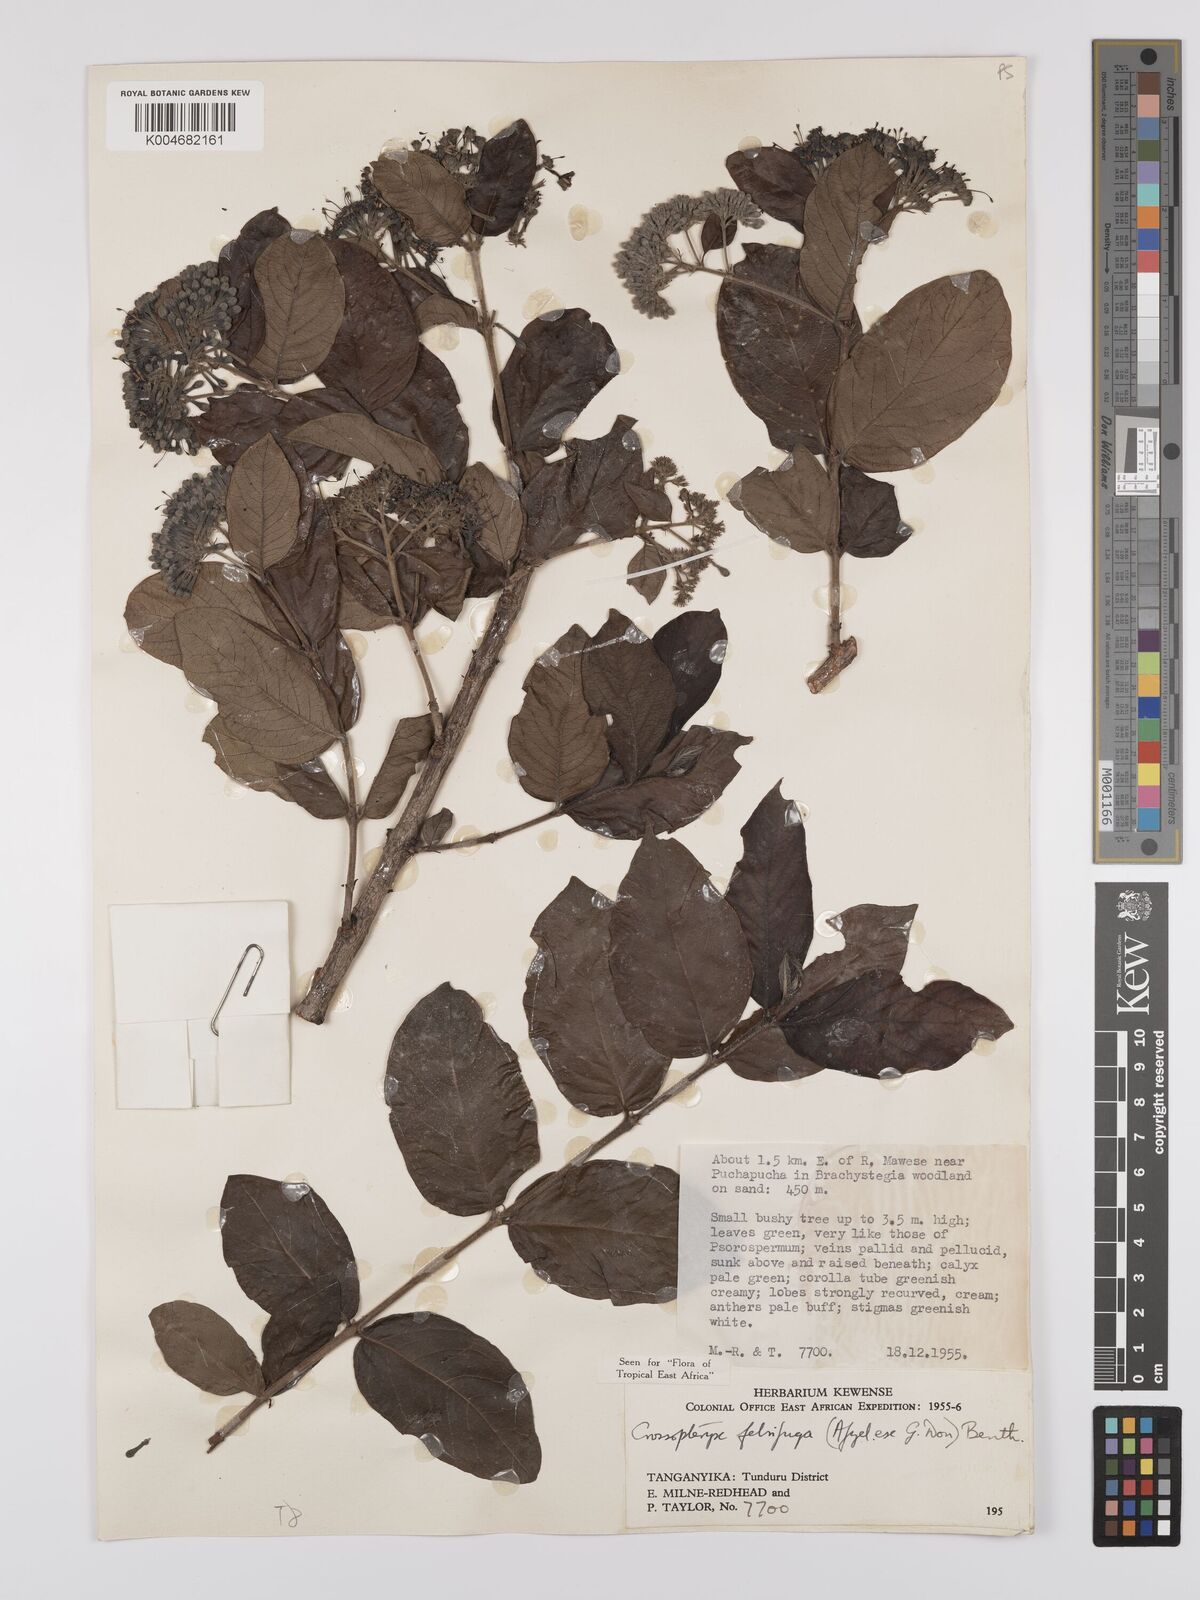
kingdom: Plantae
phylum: Tracheophyta
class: Magnoliopsida
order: Gentianales
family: Rubiaceae
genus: Crossopteryx
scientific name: Crossopteryx febrifuga
